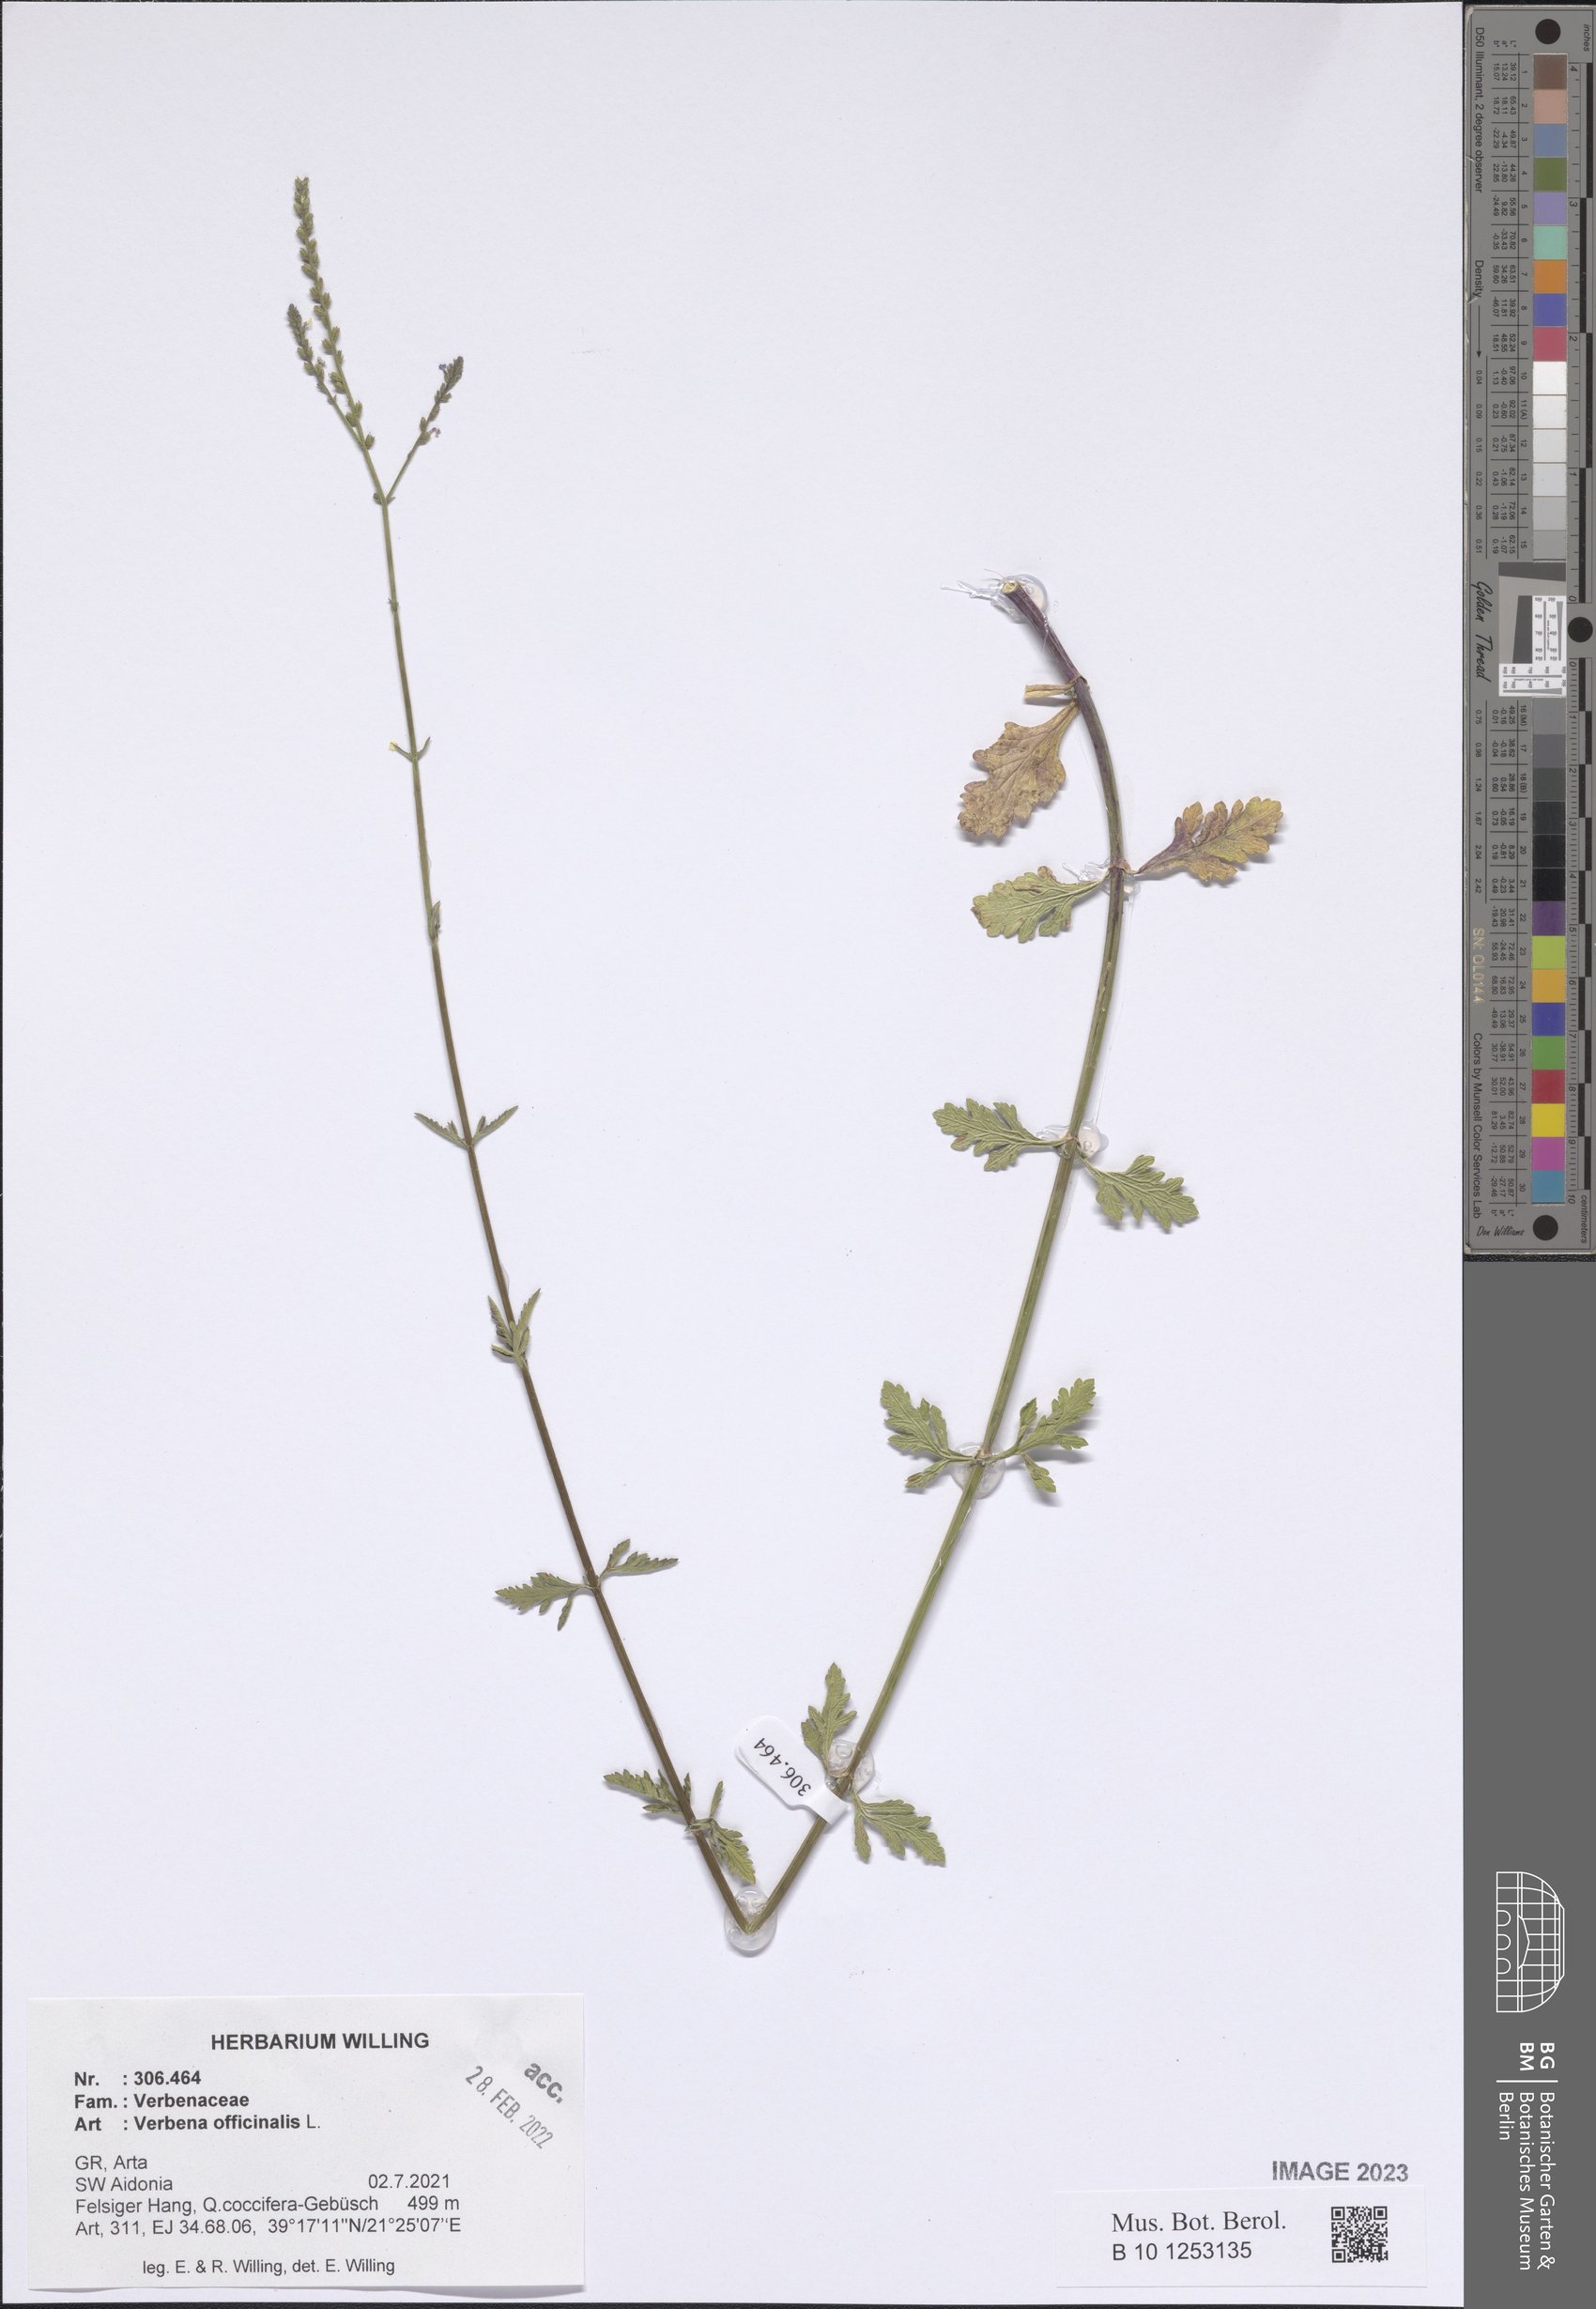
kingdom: Plantae
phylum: Tracheophyta
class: Magnoliopsida
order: Lamiales
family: Verbenaceae
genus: Verbena
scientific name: Verbena officinalis
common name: Vervain
